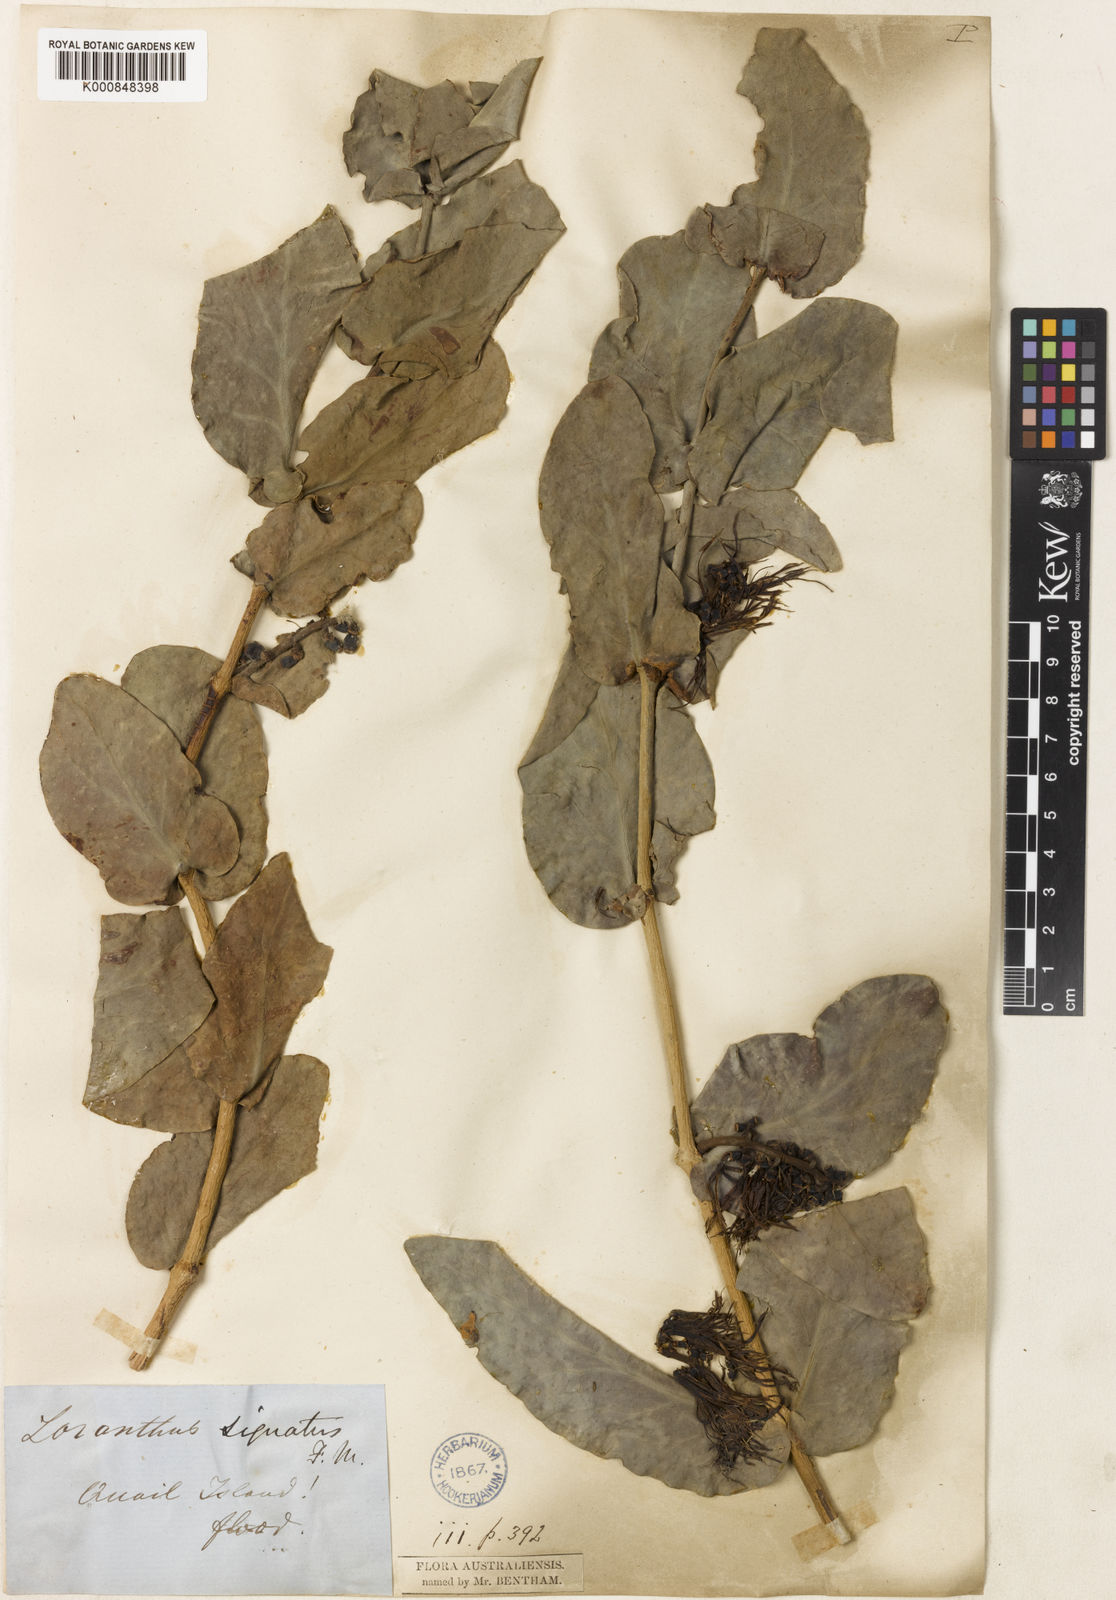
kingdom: Plantae
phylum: Tracheophyta
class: Magnoliopsida
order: Santalales
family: Loranthaceae
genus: Decaisnina
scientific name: Decaisnina signata
